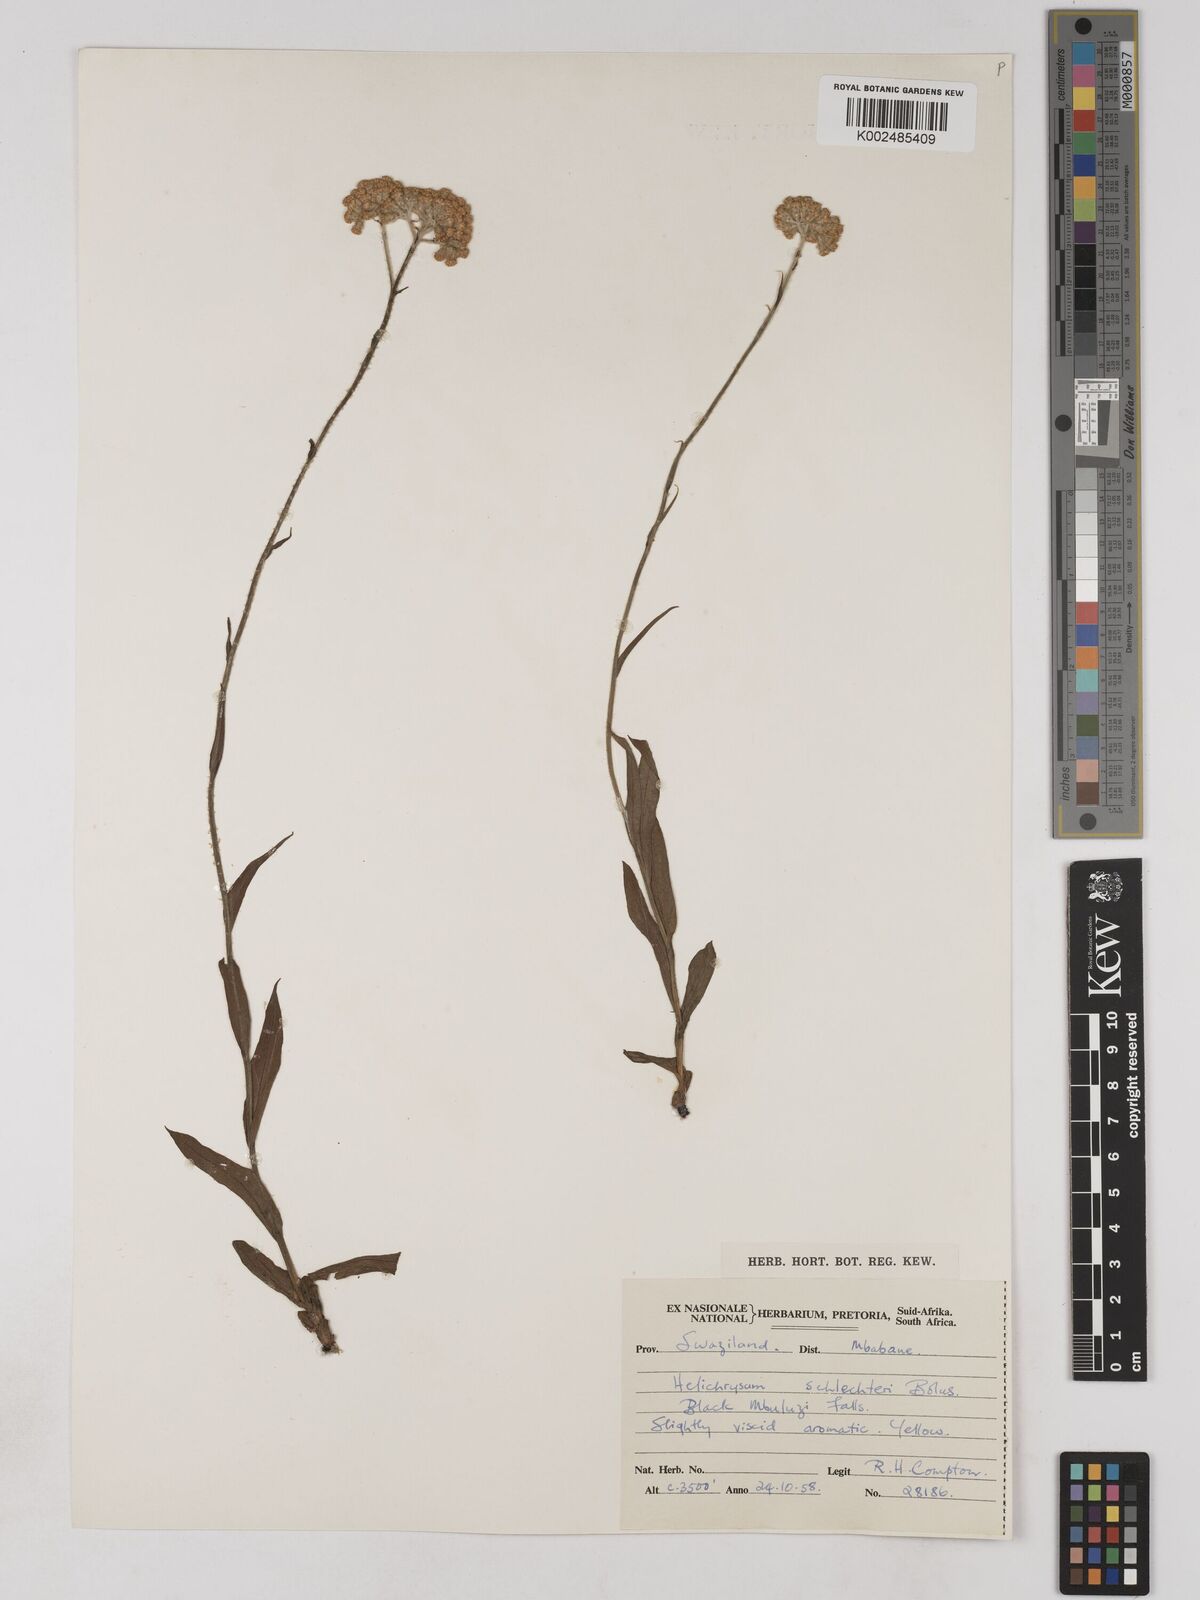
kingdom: Plantae
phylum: Tracheophyta
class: Magnoliopsida
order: Asterales
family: Asteraceae
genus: Helichrysum
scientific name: Helichrysum acutatum
